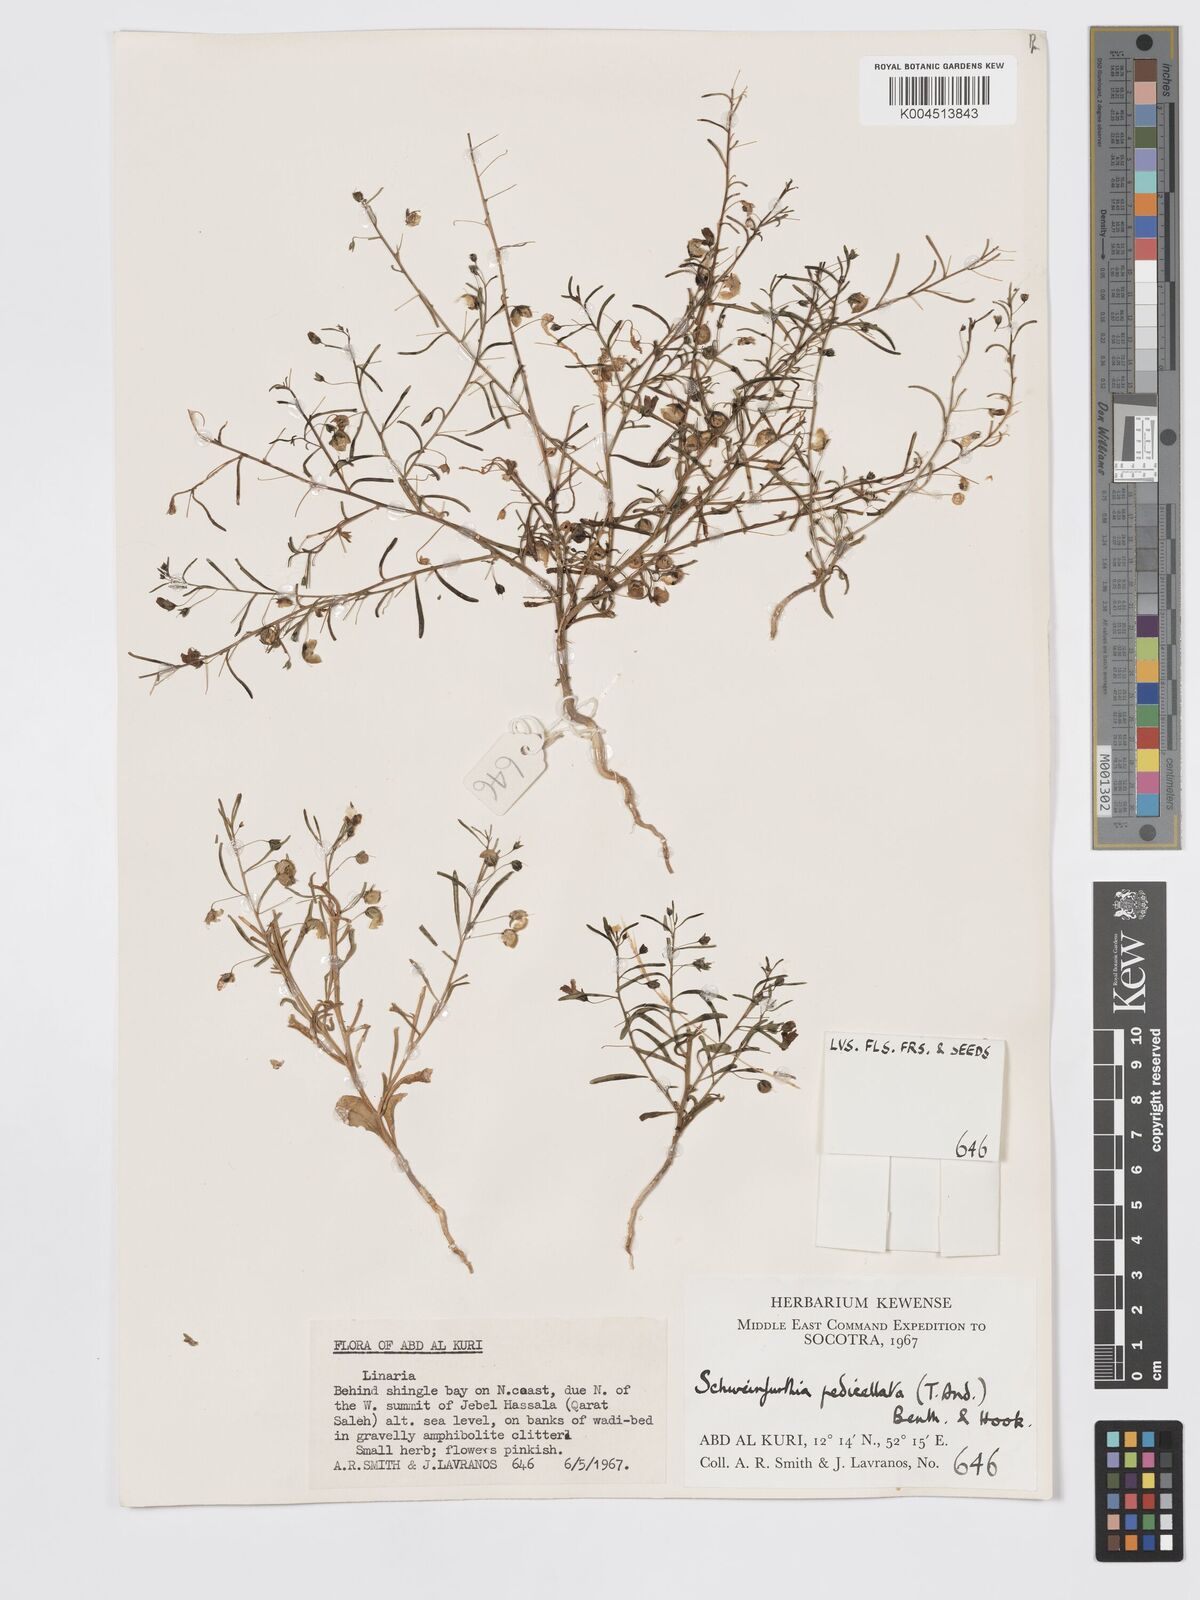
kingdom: Plantae
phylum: Tracheophyta
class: Magnoliopsida
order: Lamiales
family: Plantaginaceae
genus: Schweinfurthia
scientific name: Schweinfurthia pedicellata
